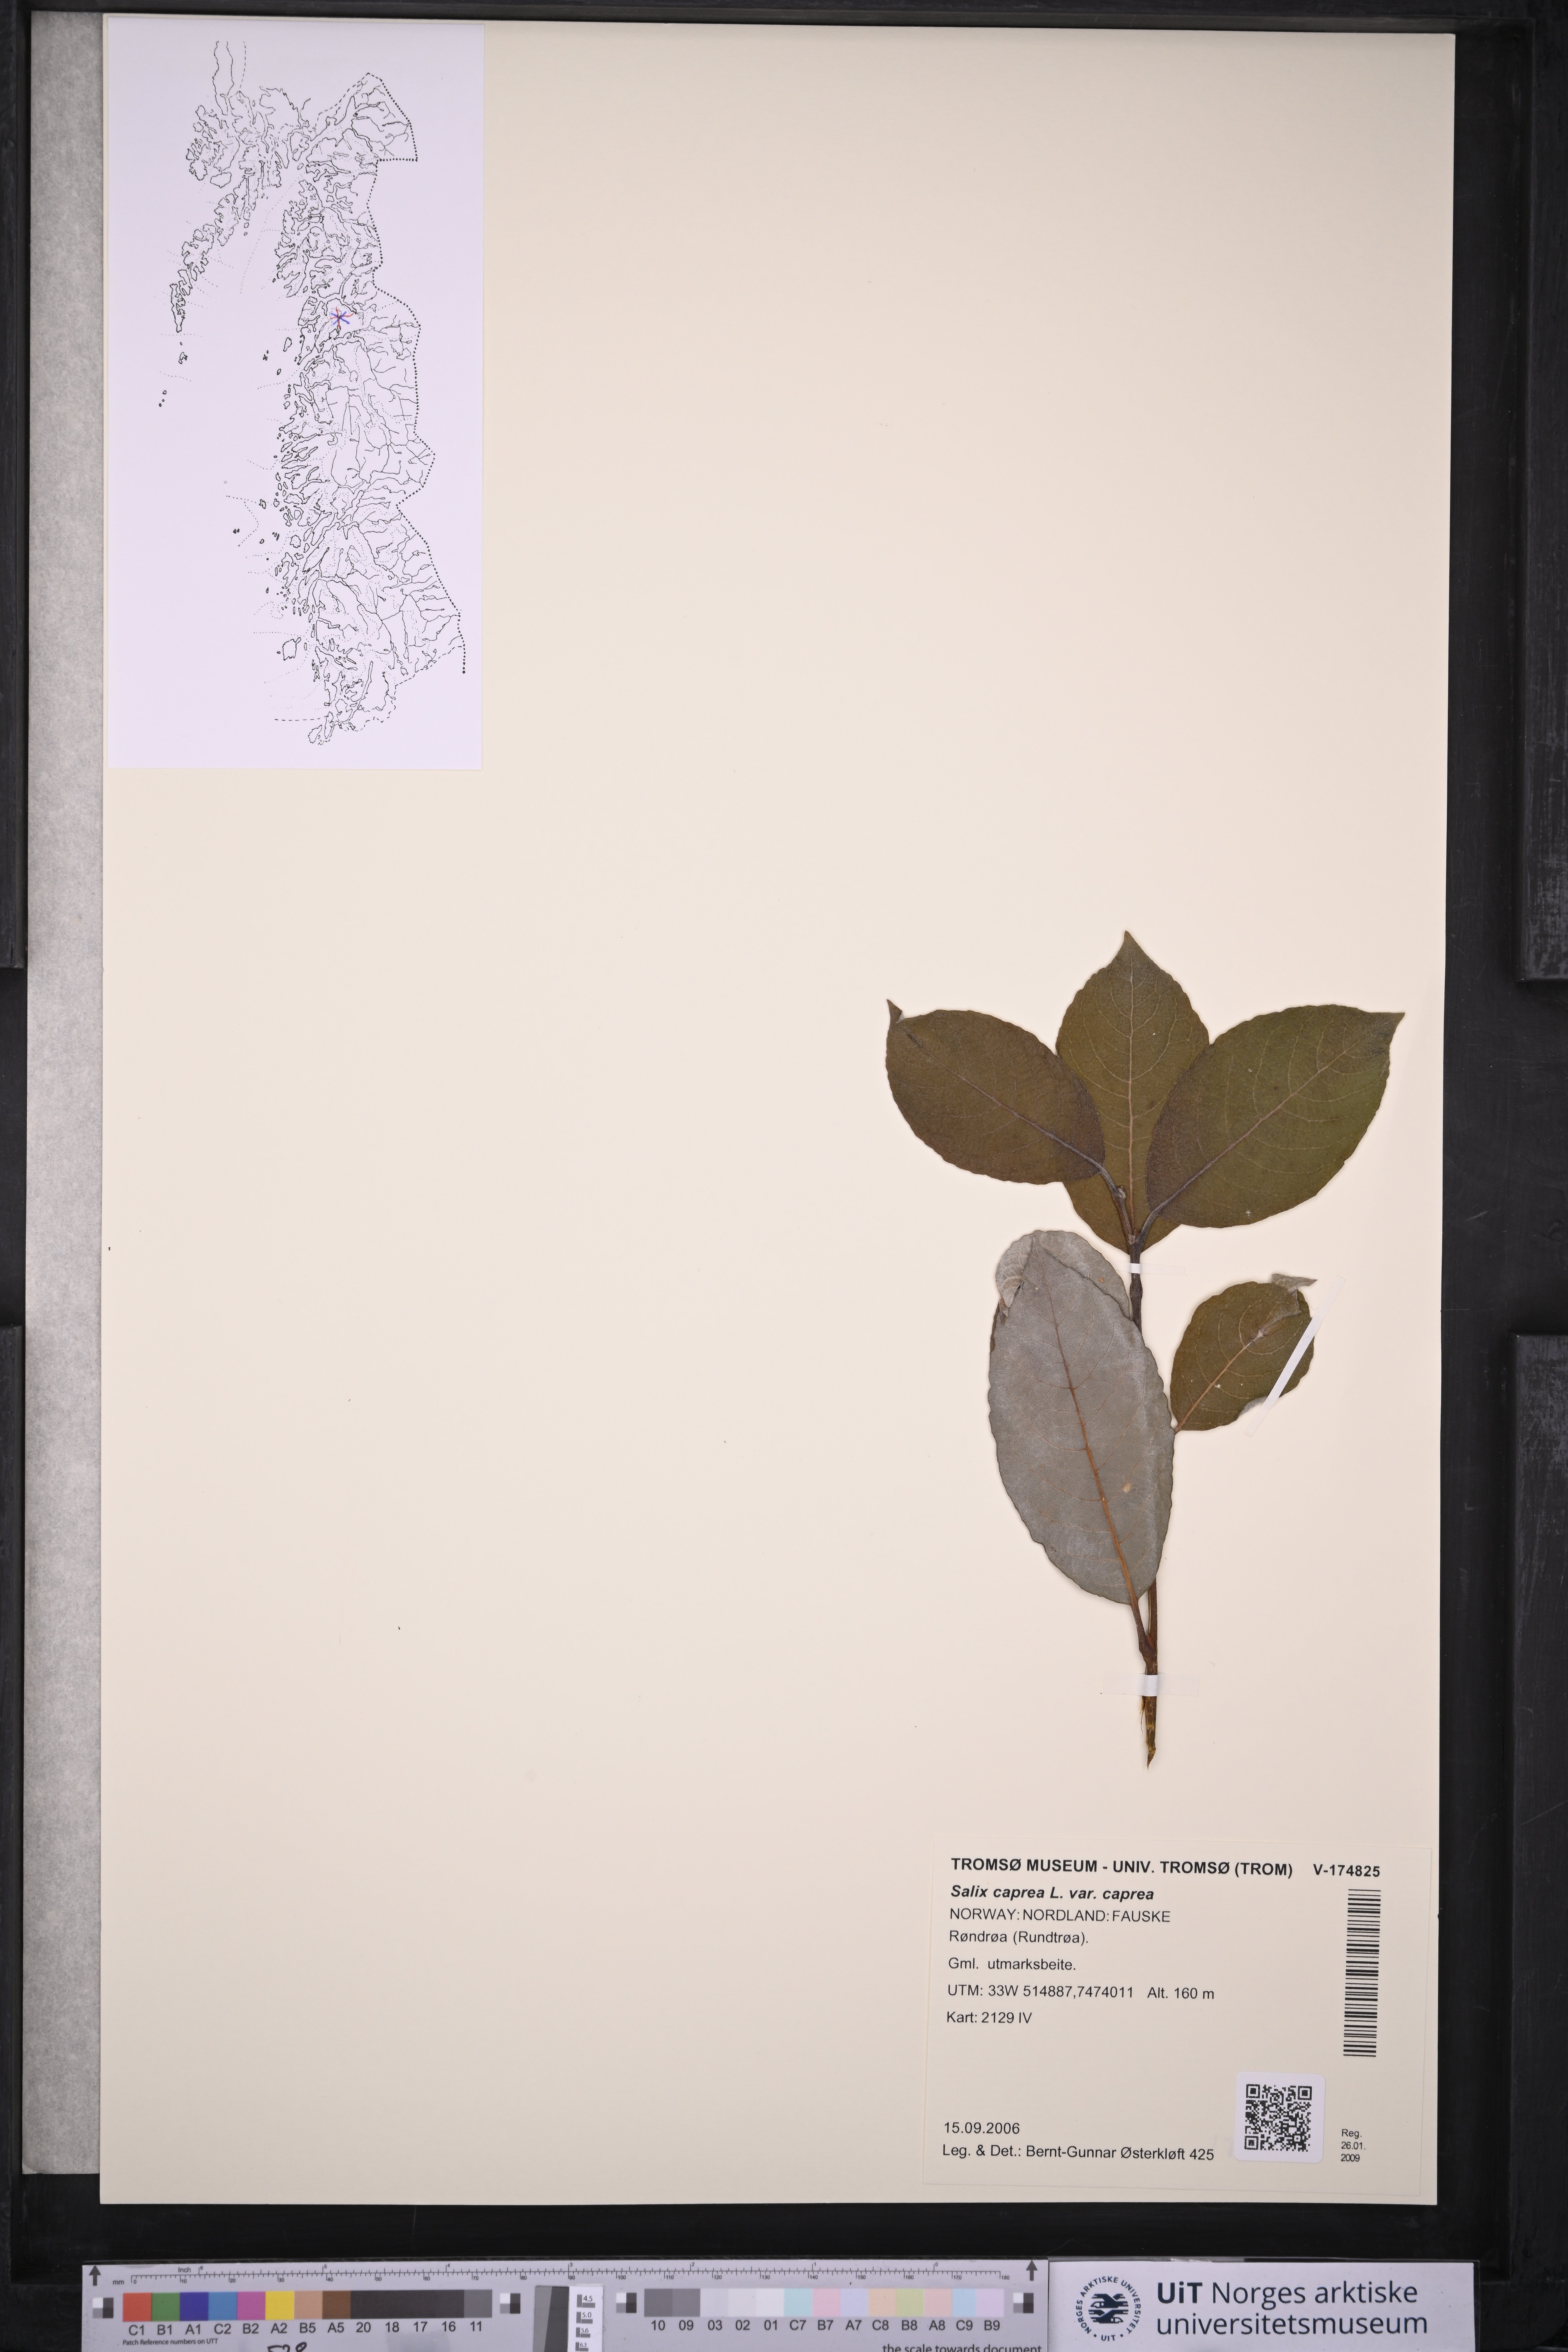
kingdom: Plantae
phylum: Tracheophyta
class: Magnoliopsida
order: Malpighiales
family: Salicaceae
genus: Salix
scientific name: Salix caprea
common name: Goat willow
